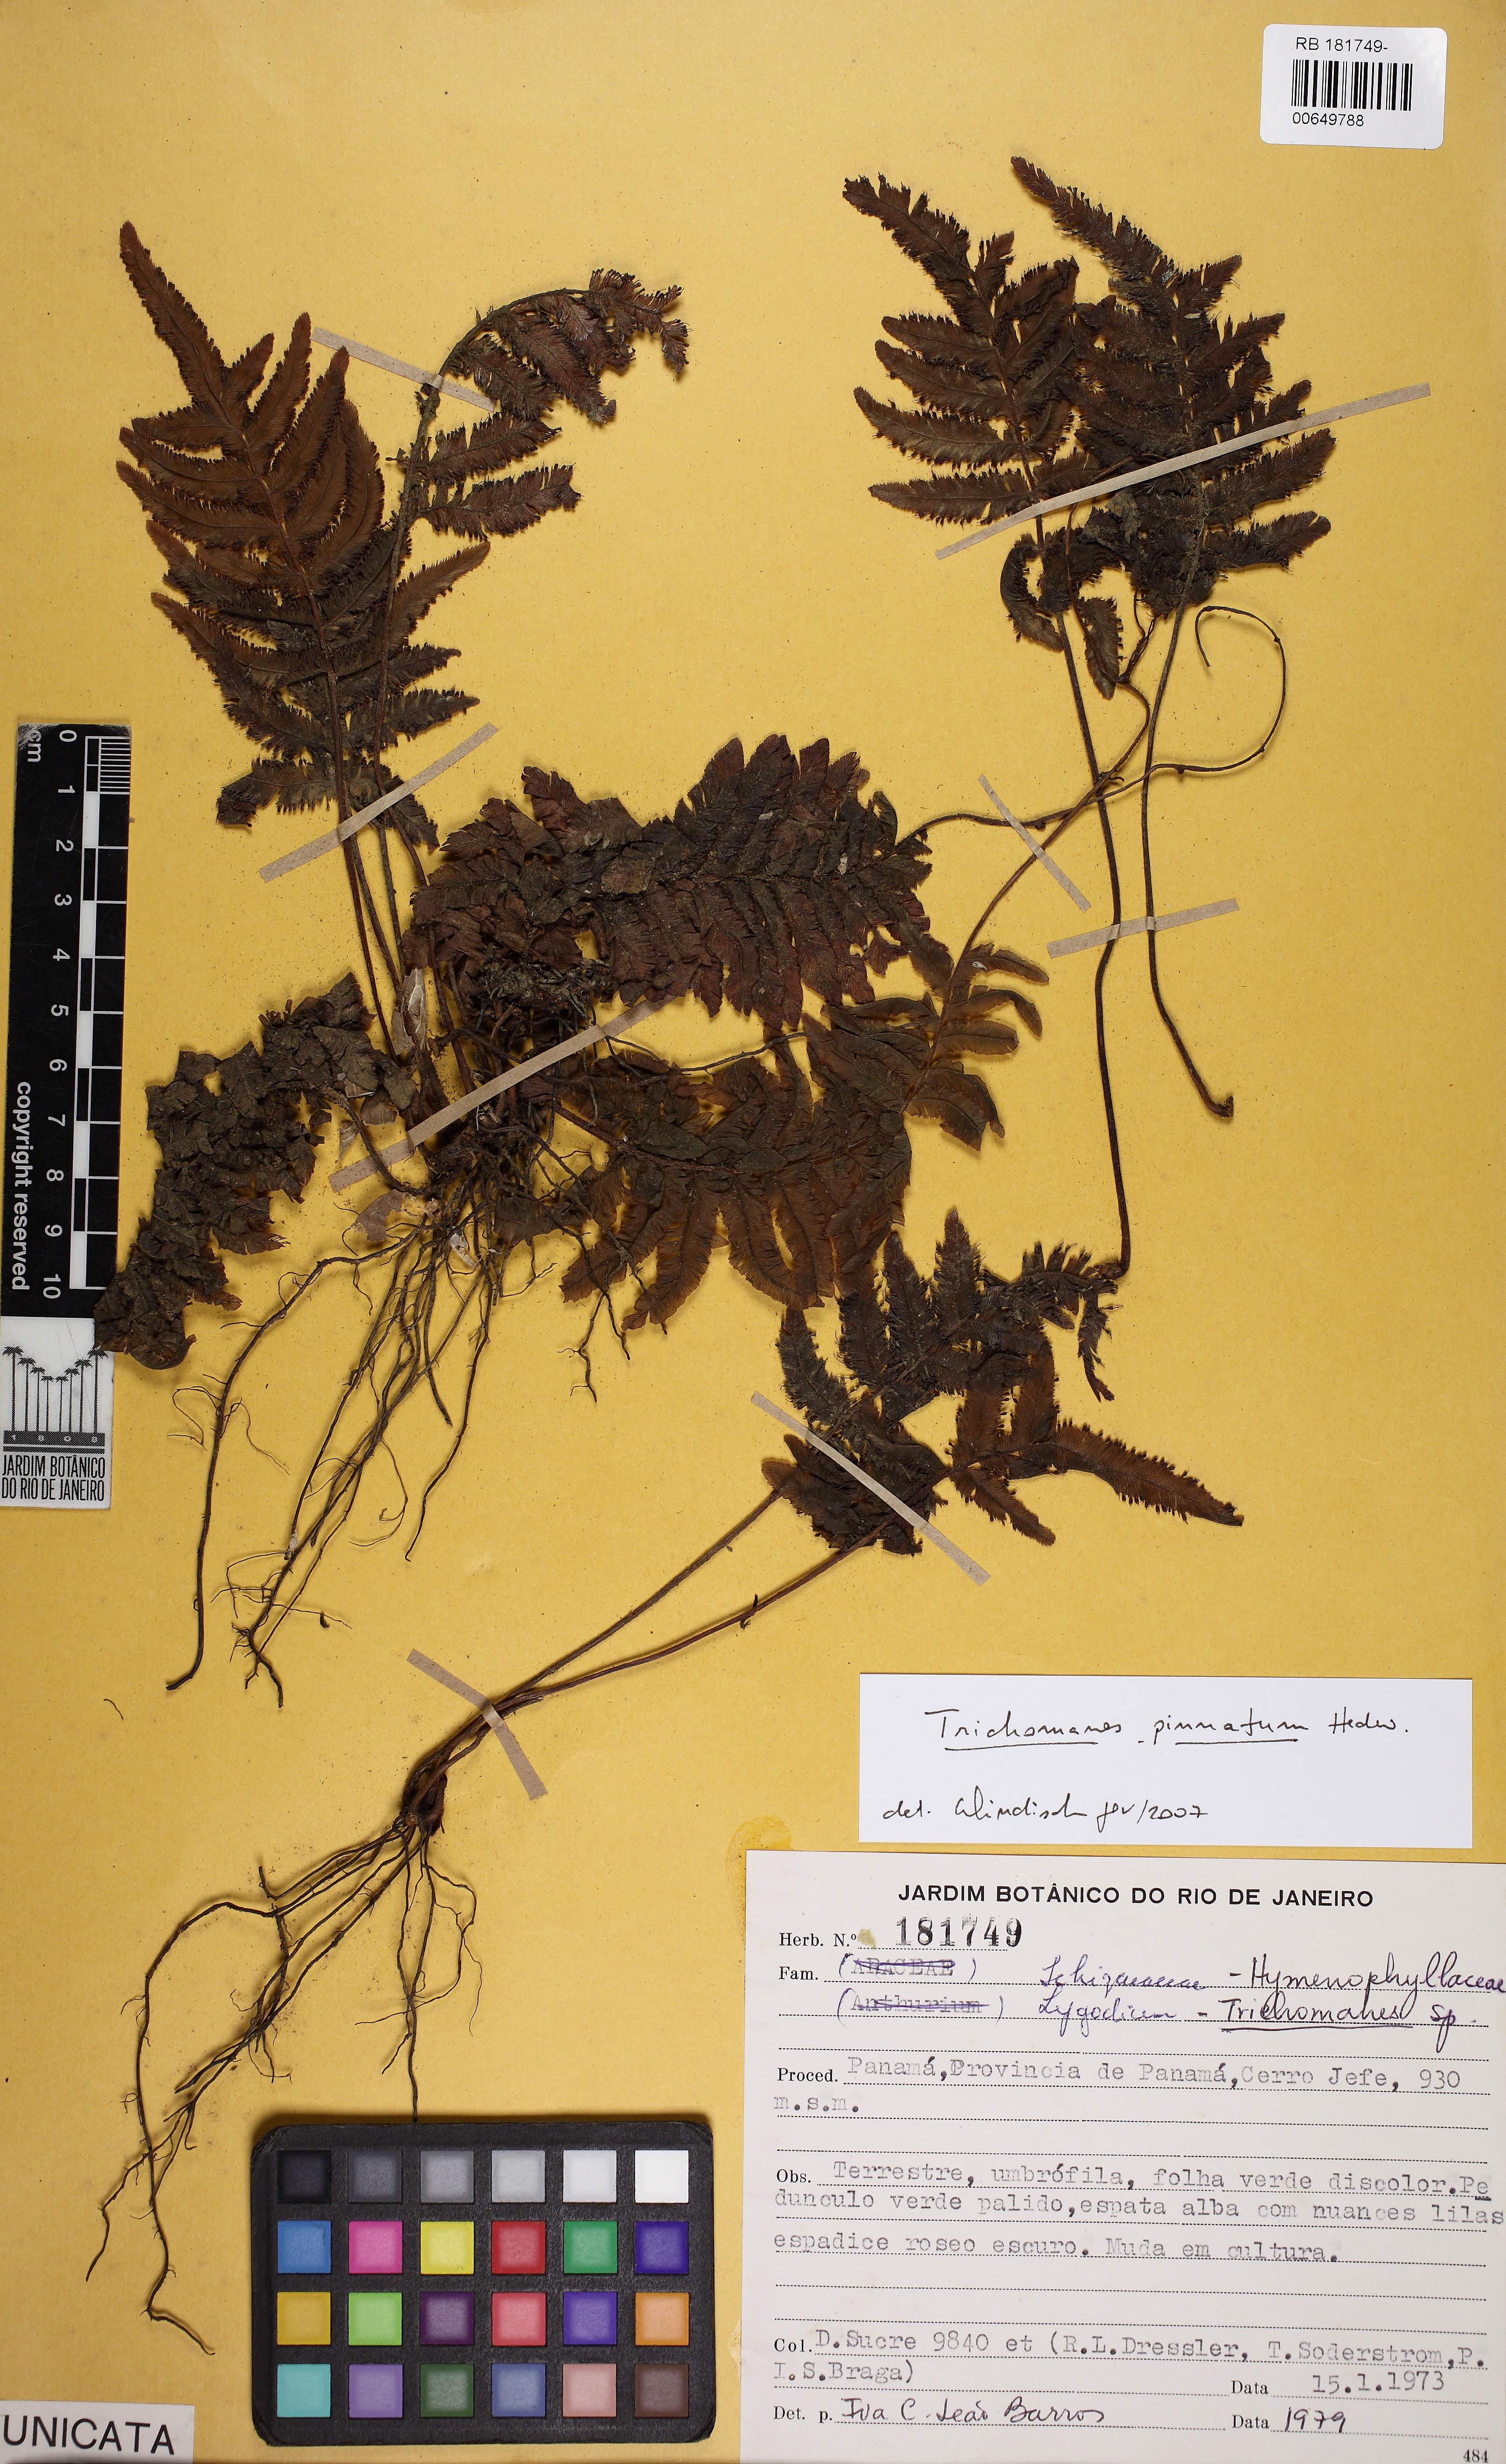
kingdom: Plantae
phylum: Tracheophyta
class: Polypodiopsida
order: Hymenophyllales
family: Hymenophyllaceae
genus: Trichomanes
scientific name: Trichomanes pinnatum
